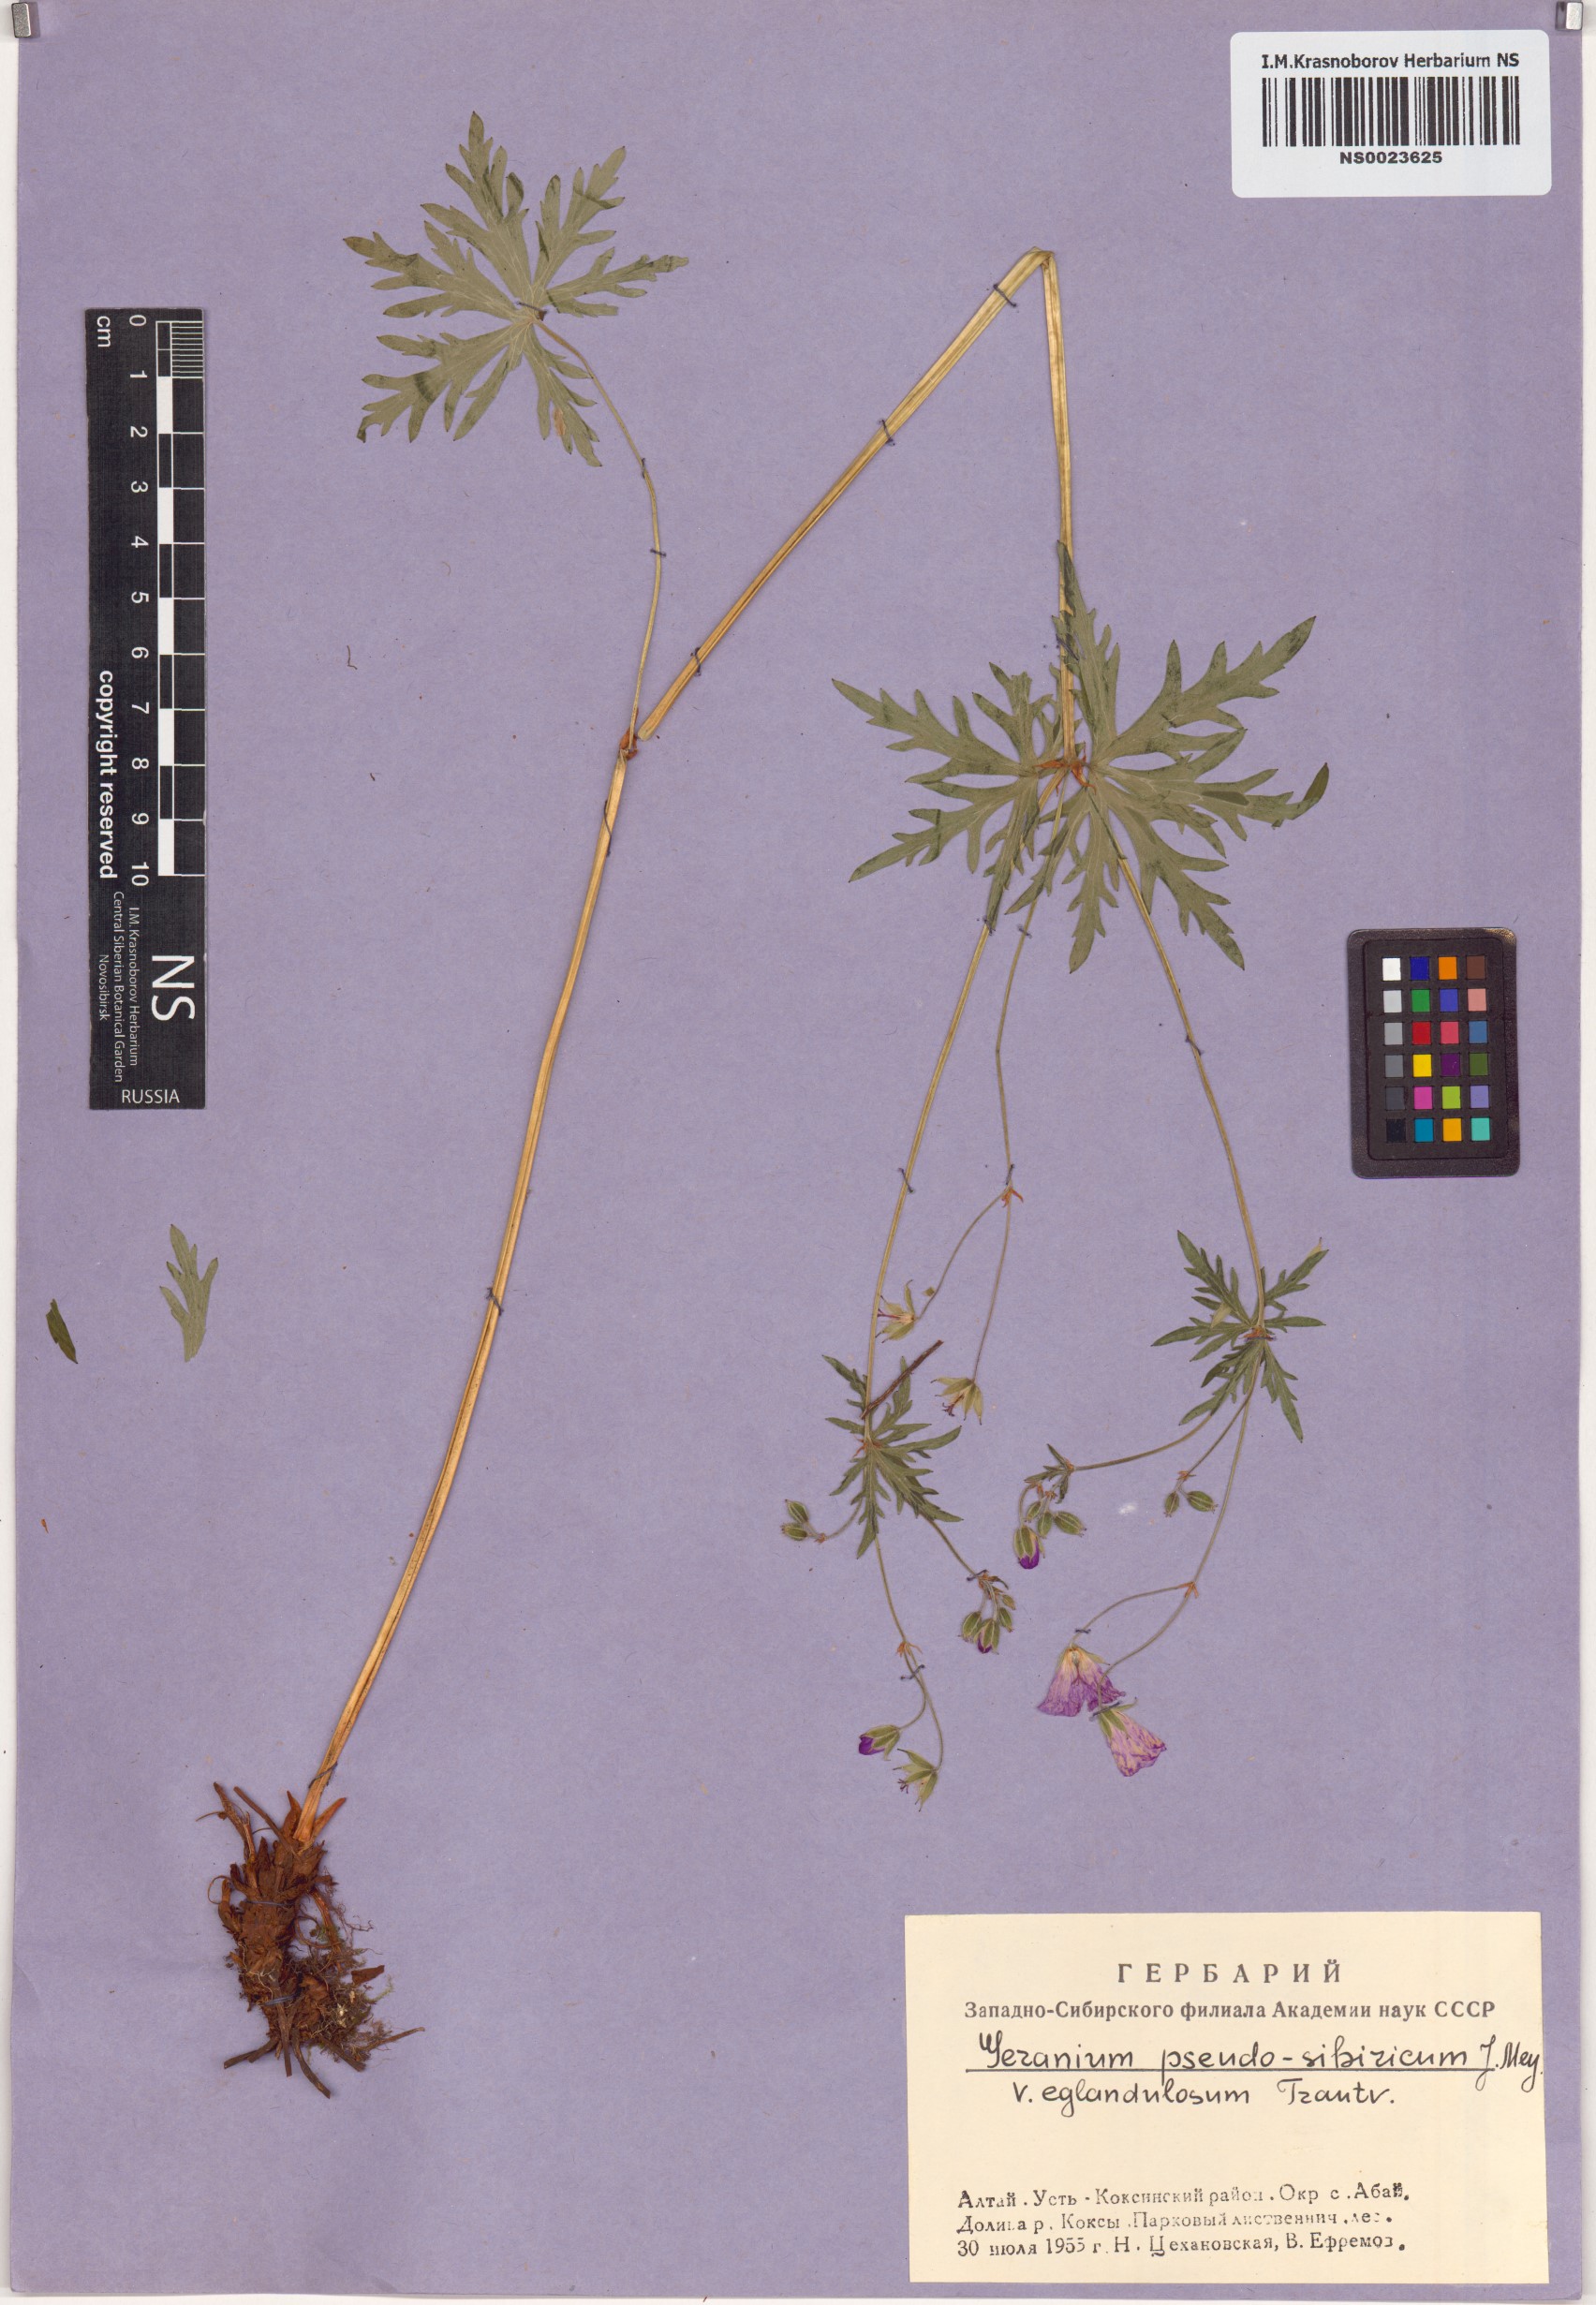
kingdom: Plantae
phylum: Tracheophyta
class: Magnoliopsida
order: Geraniales
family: Geraniaceae
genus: Geranium
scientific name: Geranium pseudosibiricum
